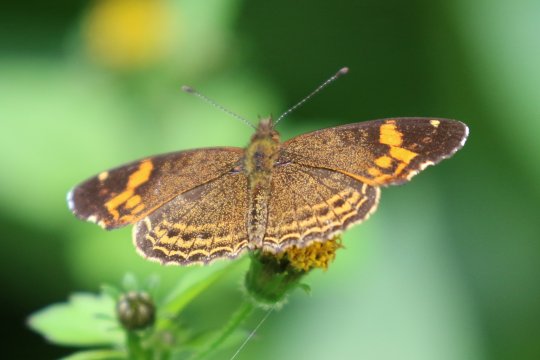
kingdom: Animalia
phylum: Arthropoda
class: Insecta
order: Lepidoptera
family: Nymphalidae
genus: Telenassa
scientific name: Telenassa delphia
